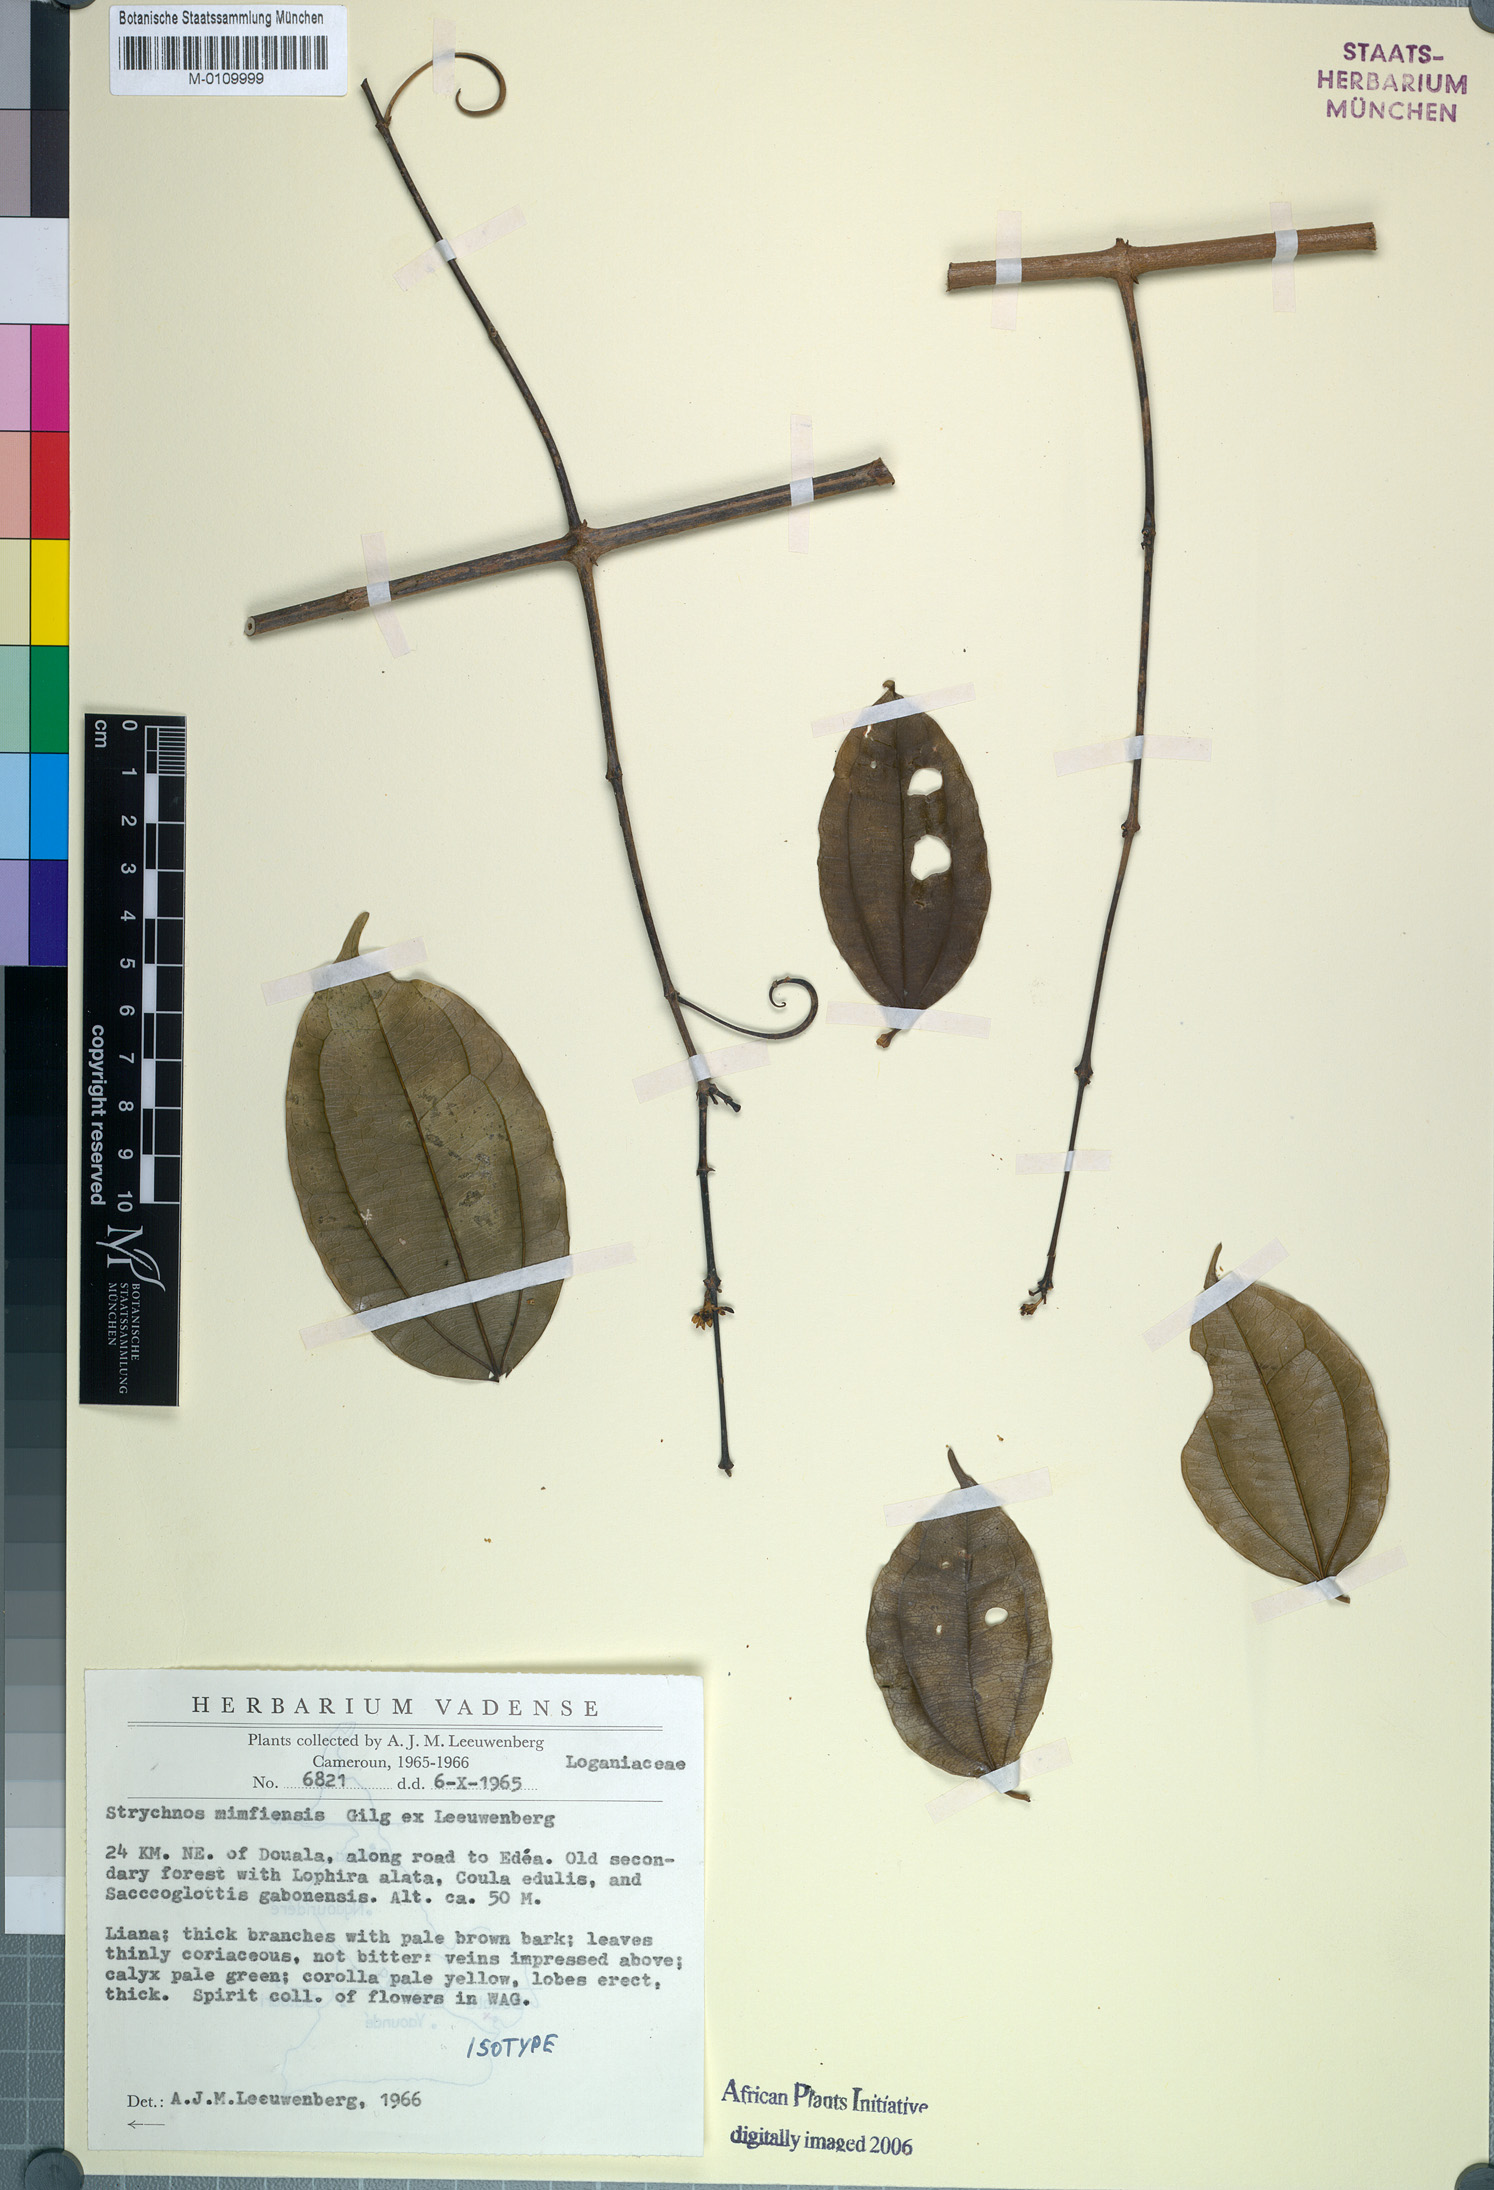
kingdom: Plantae
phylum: Tracheophyta
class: Magnoliopsida
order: Gentianales
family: Loganiaceae
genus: Strychnos
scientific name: Strychnos mimfiensis
